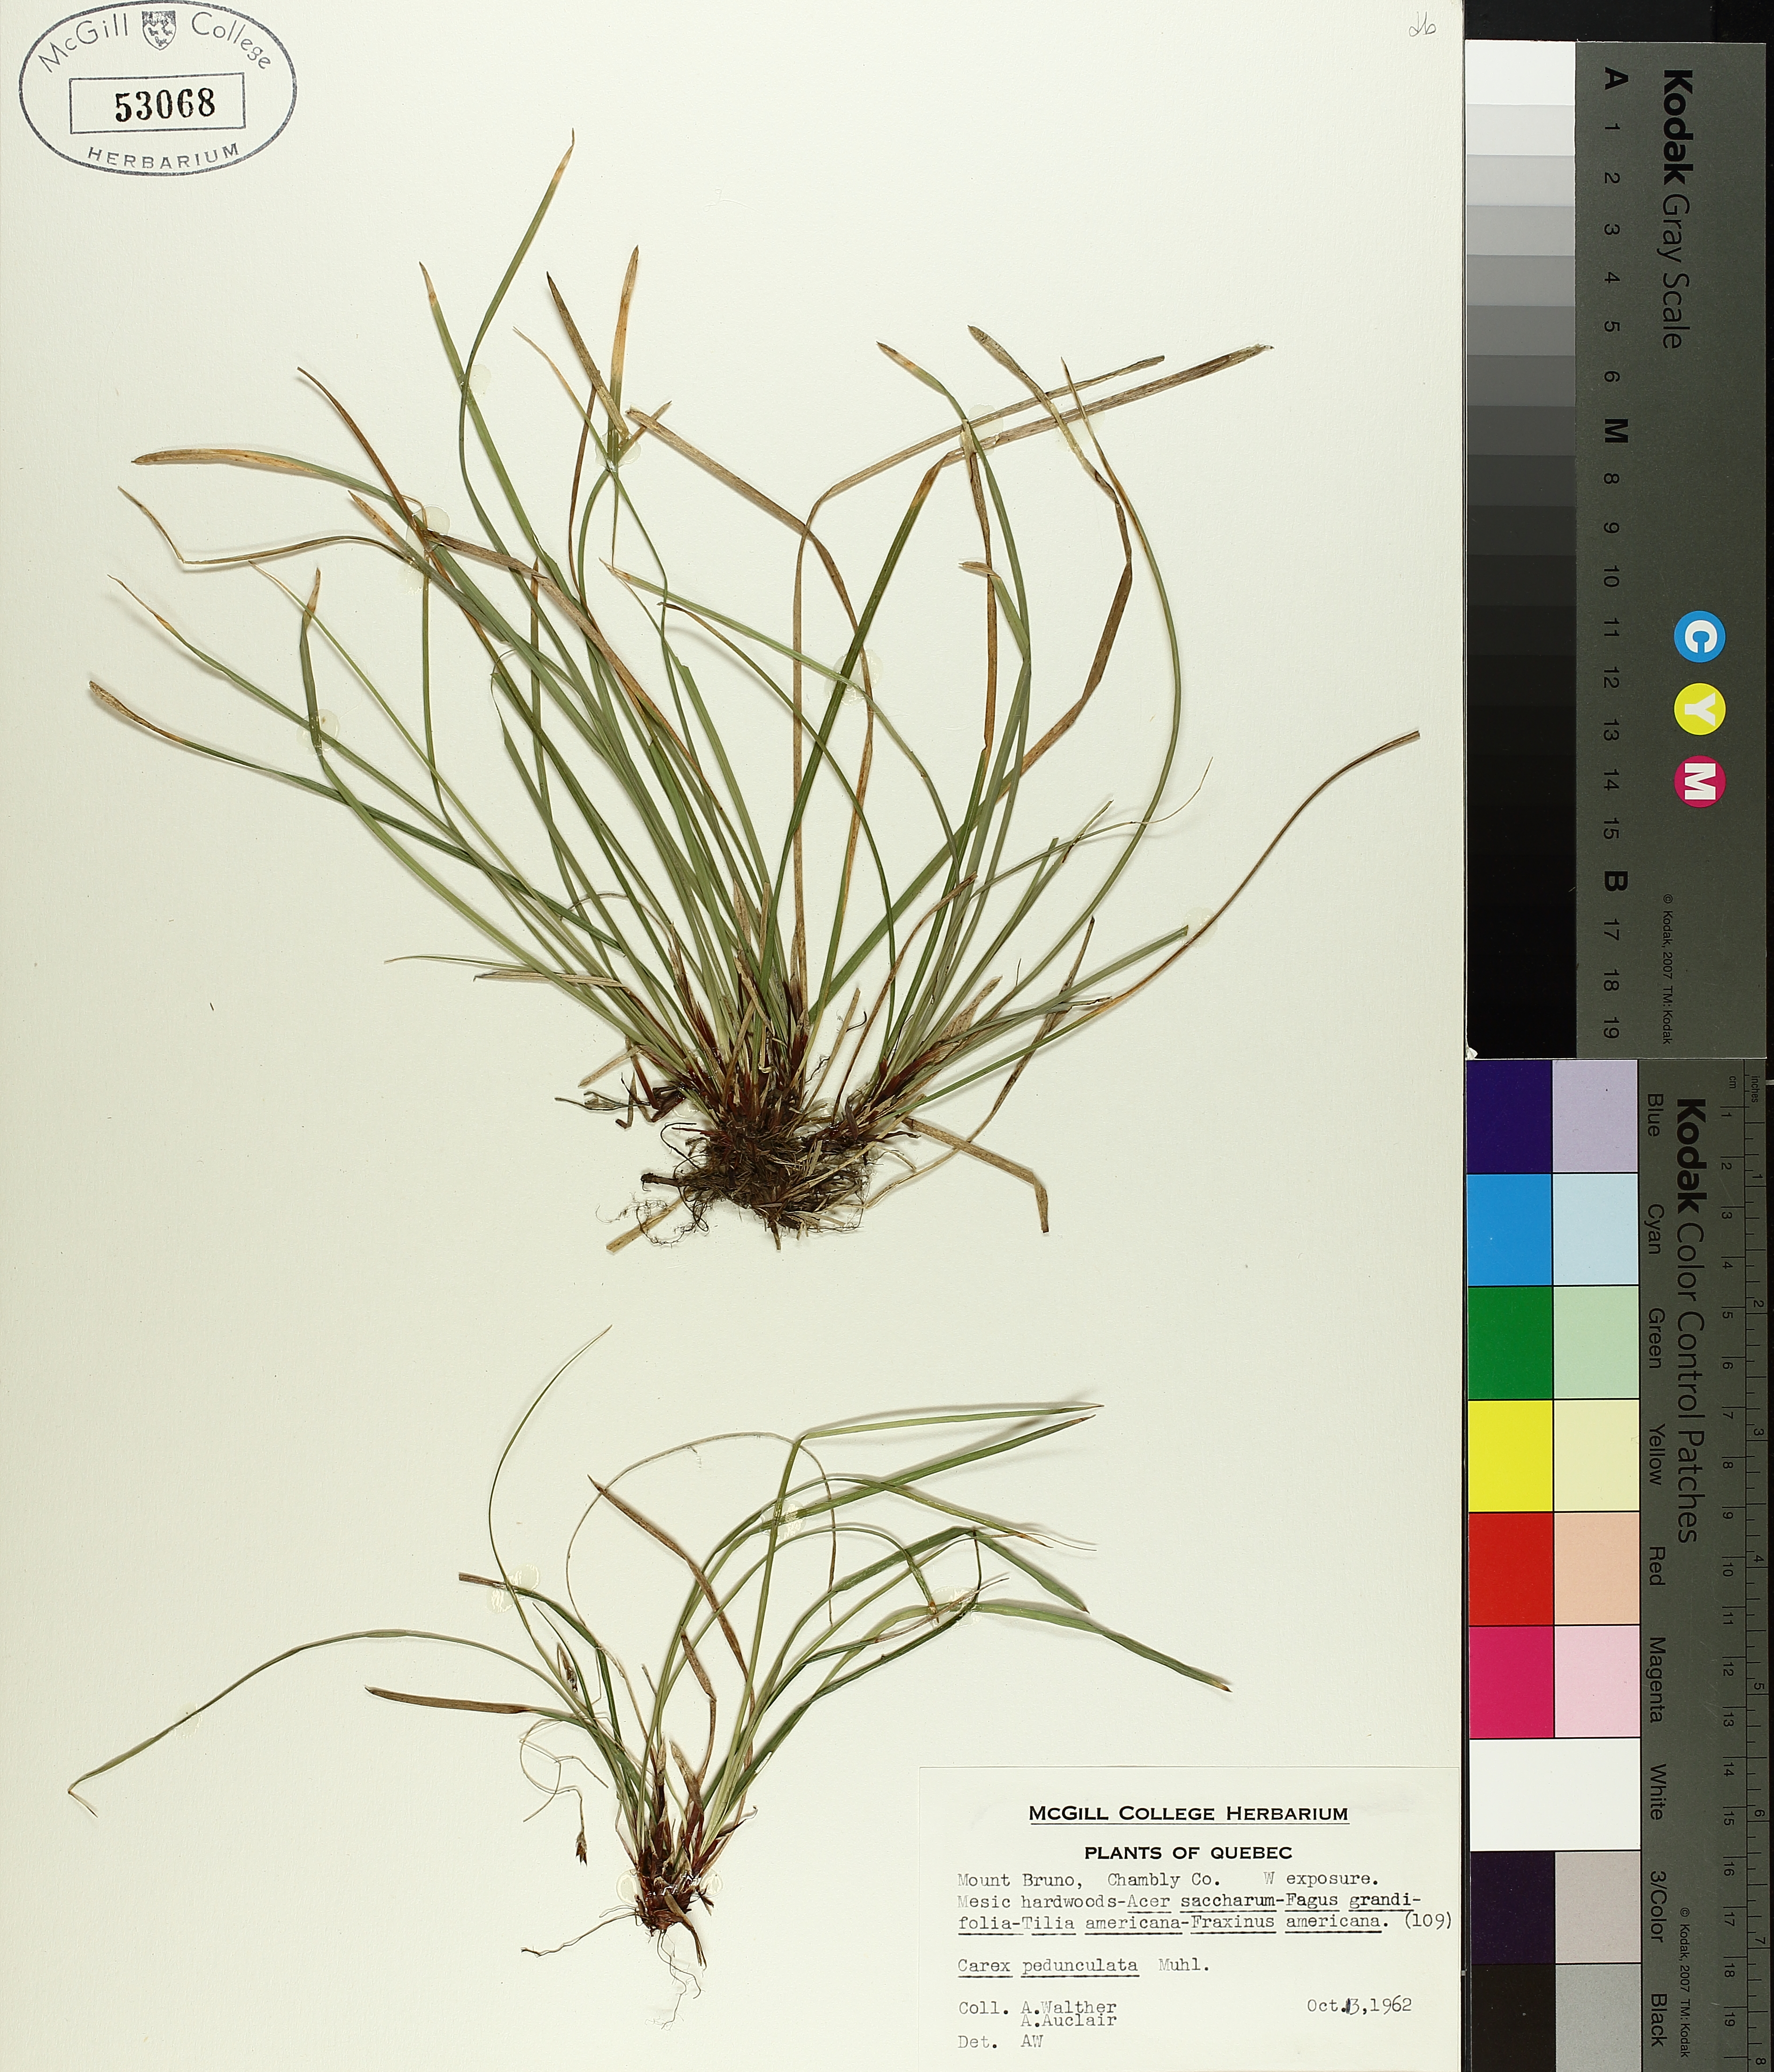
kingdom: Plantae
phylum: Tracheophyta
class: Liliopsida
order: Poales
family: Cyperaceae
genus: Carex
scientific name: Carex pedunculata
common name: Pedunculate sedge
